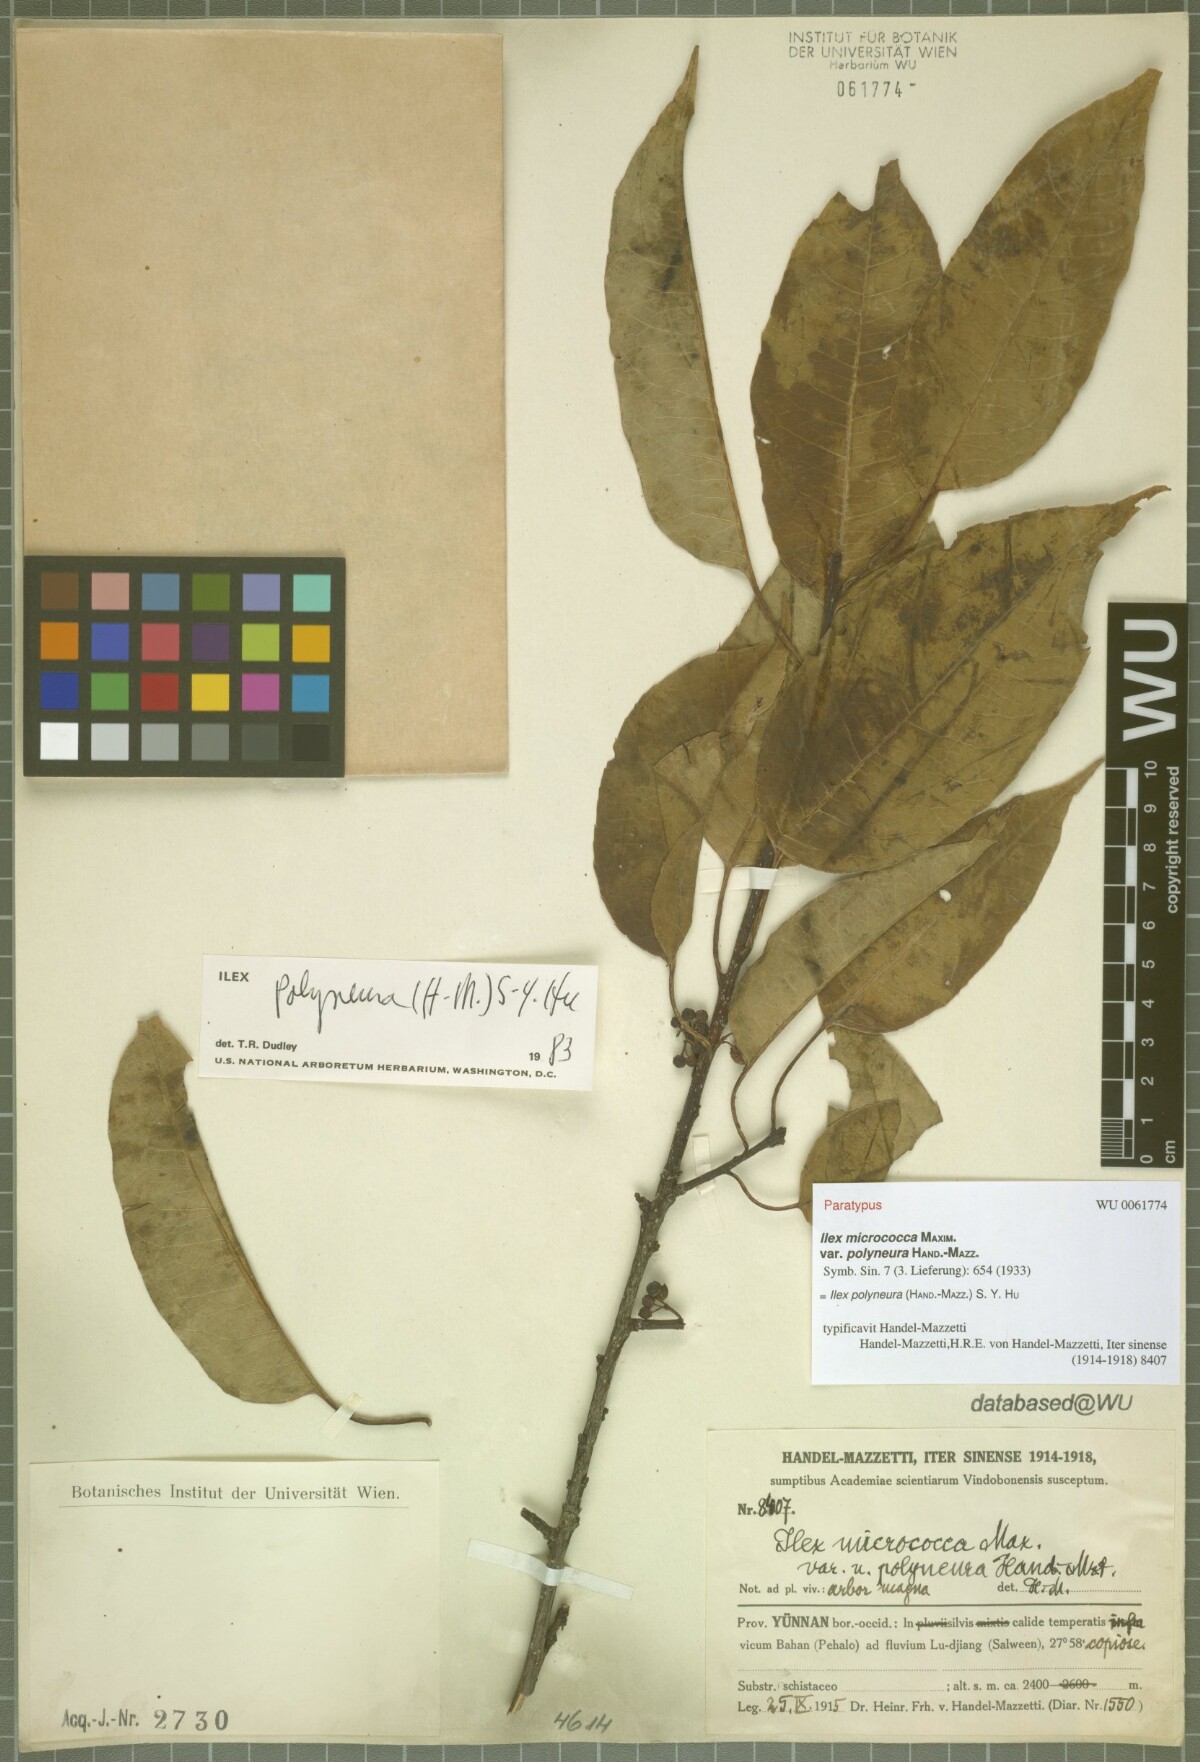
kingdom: Plantae
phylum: Tracheophyta
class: Magnoliopsida
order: Aquifoliales
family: Aquifoliaceae
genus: Ilex
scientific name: Ilex micrococca
